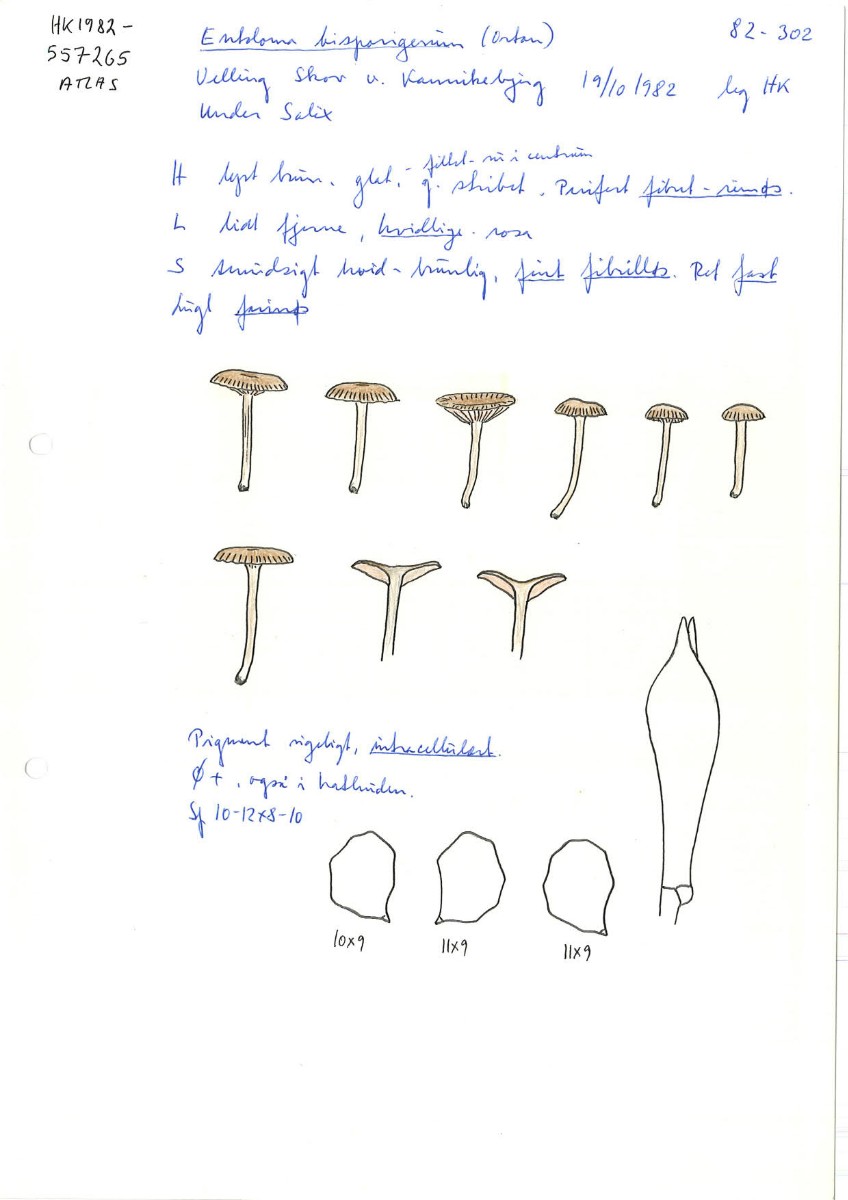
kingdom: Fungi
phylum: Basidiomycota
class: Agaricomycetes
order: Agaricales
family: Entolomataceae
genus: Entoloma
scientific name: Entoloma caccabus
